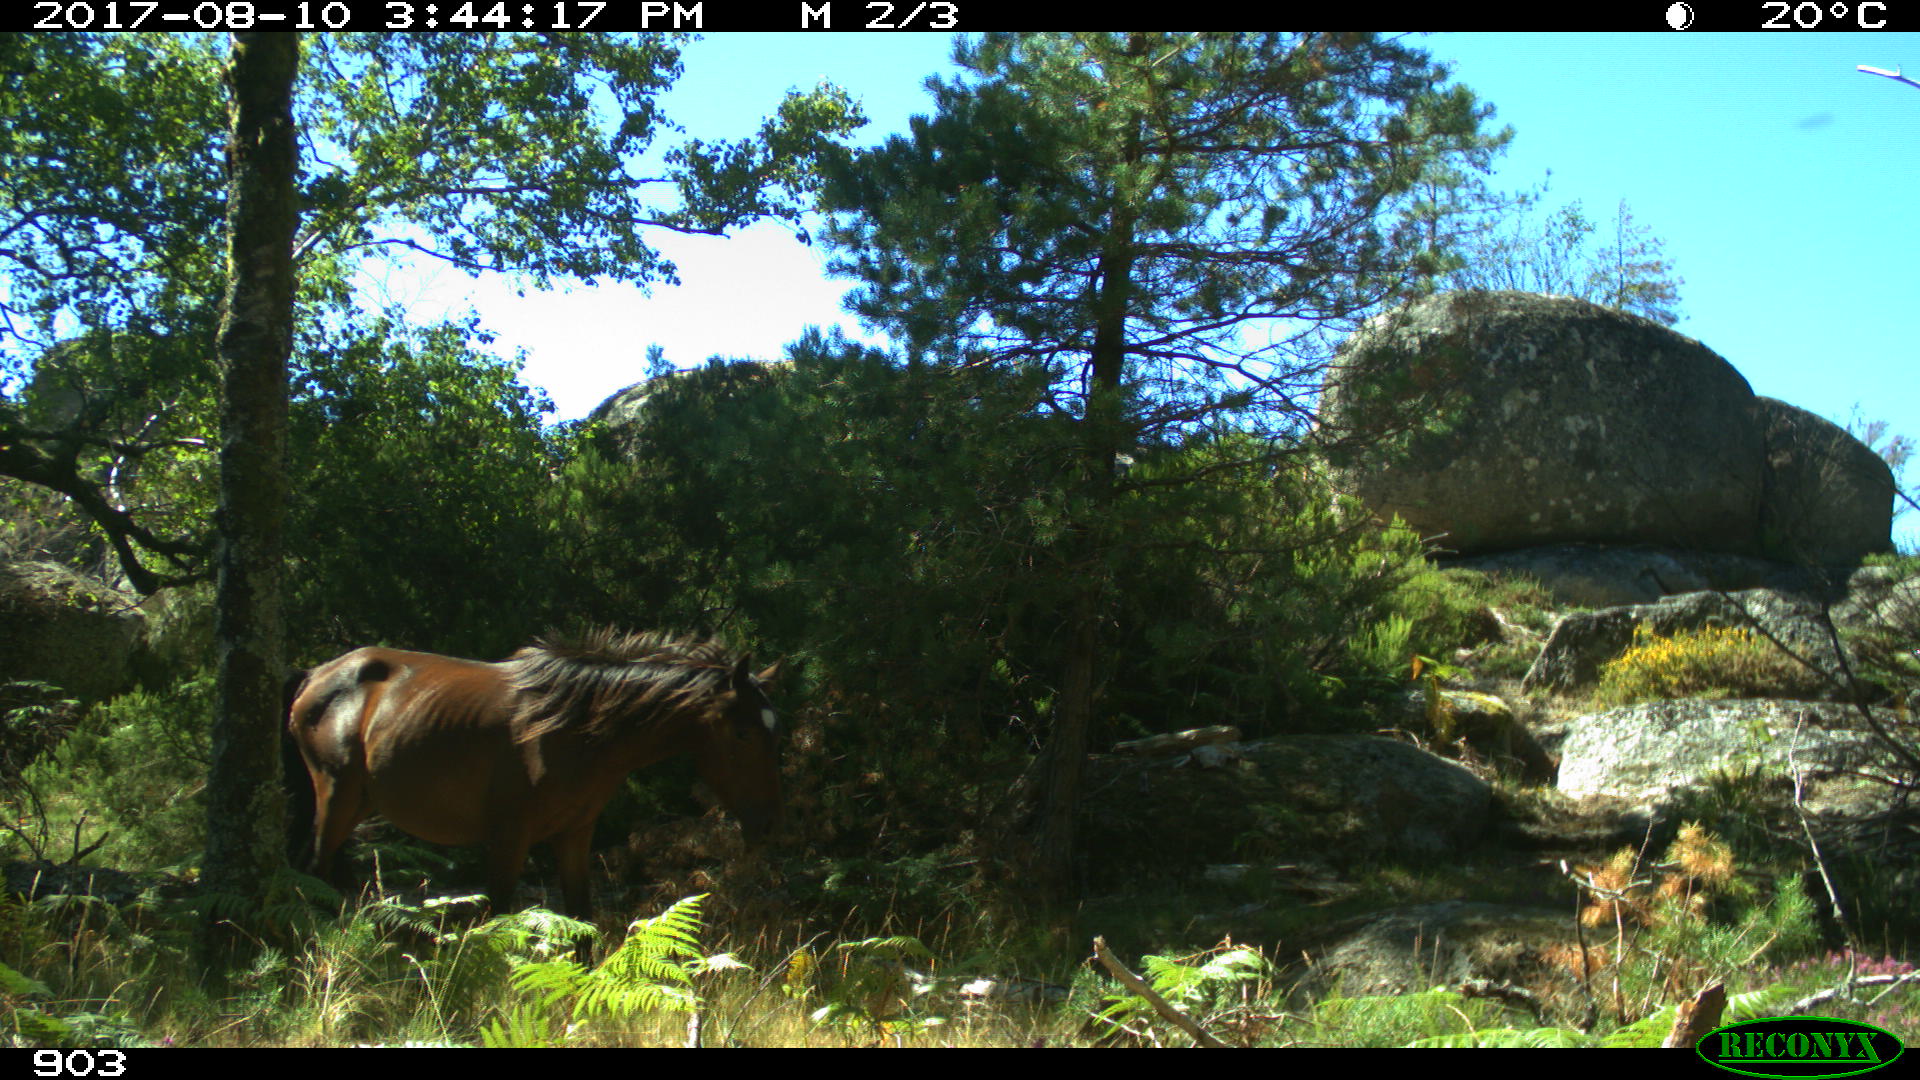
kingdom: Animalia
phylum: Chordata
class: Mammalia
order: Perissodactyla
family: Equidae
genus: Equus
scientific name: Equus caballus
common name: Horse
